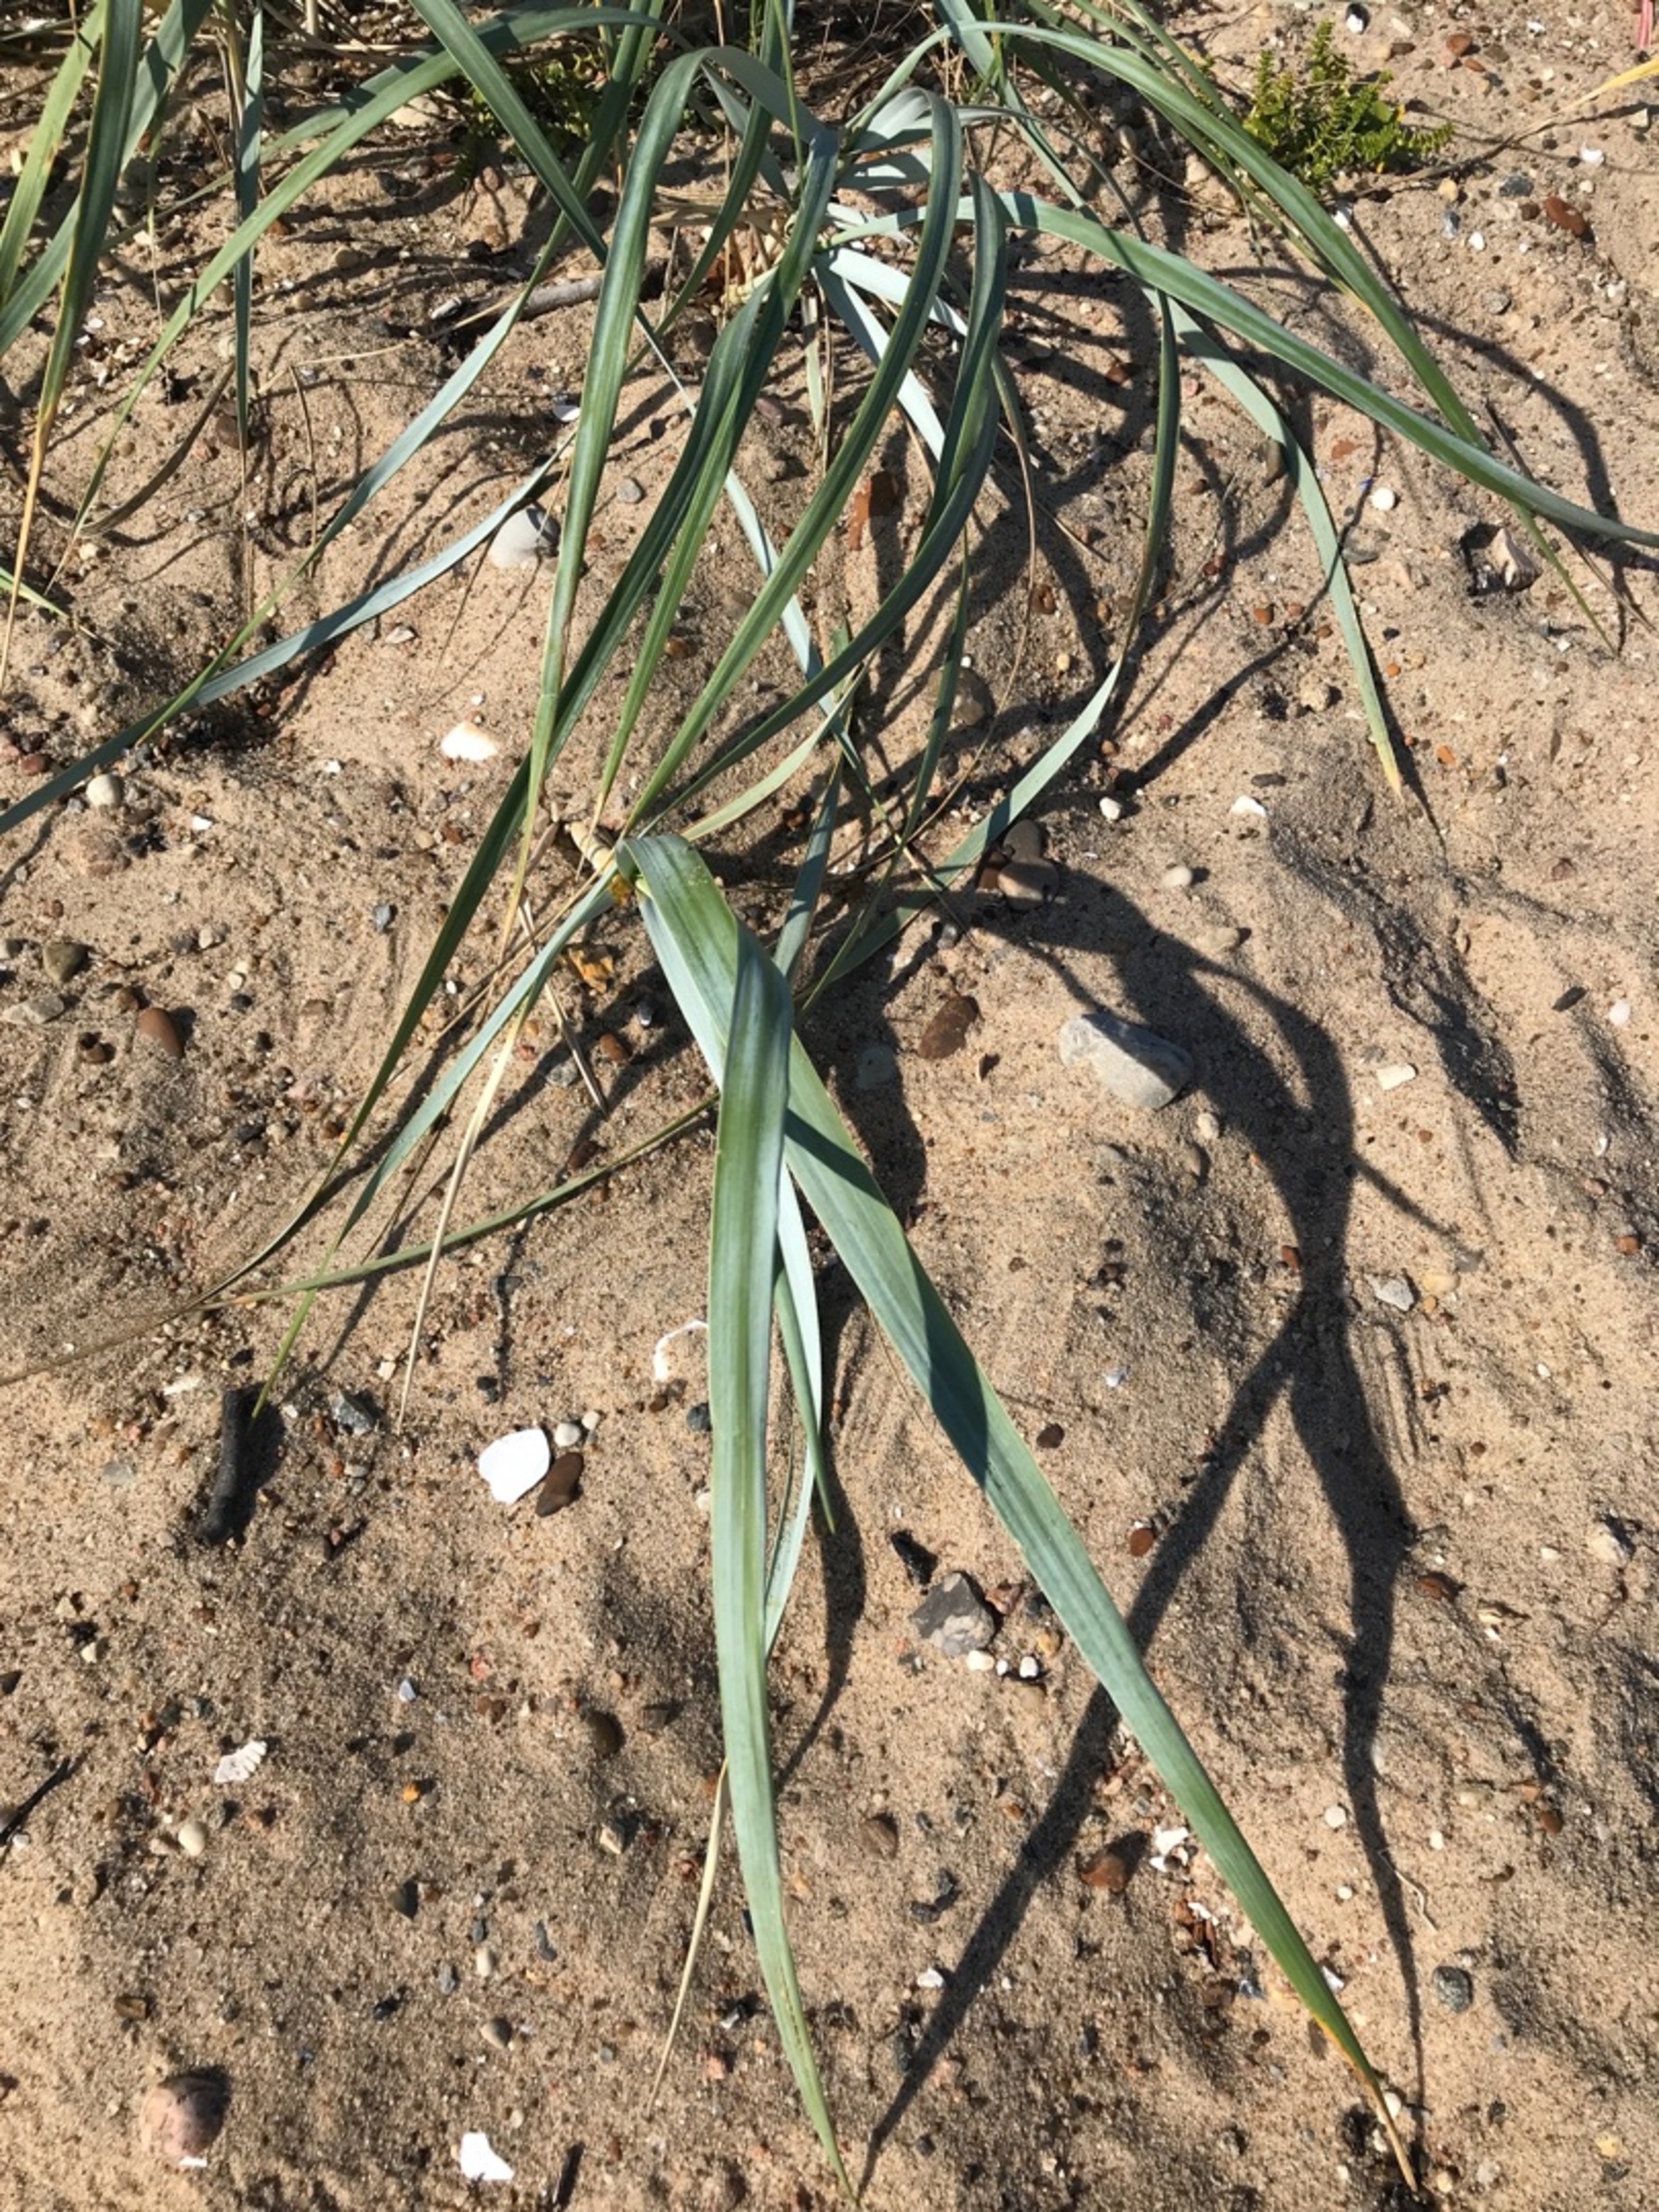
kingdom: Plantae
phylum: Tracheophyta
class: Liliopsida
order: Poales
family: Poaceae
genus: Leymus
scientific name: Leymus arenarius
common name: Marehalm
